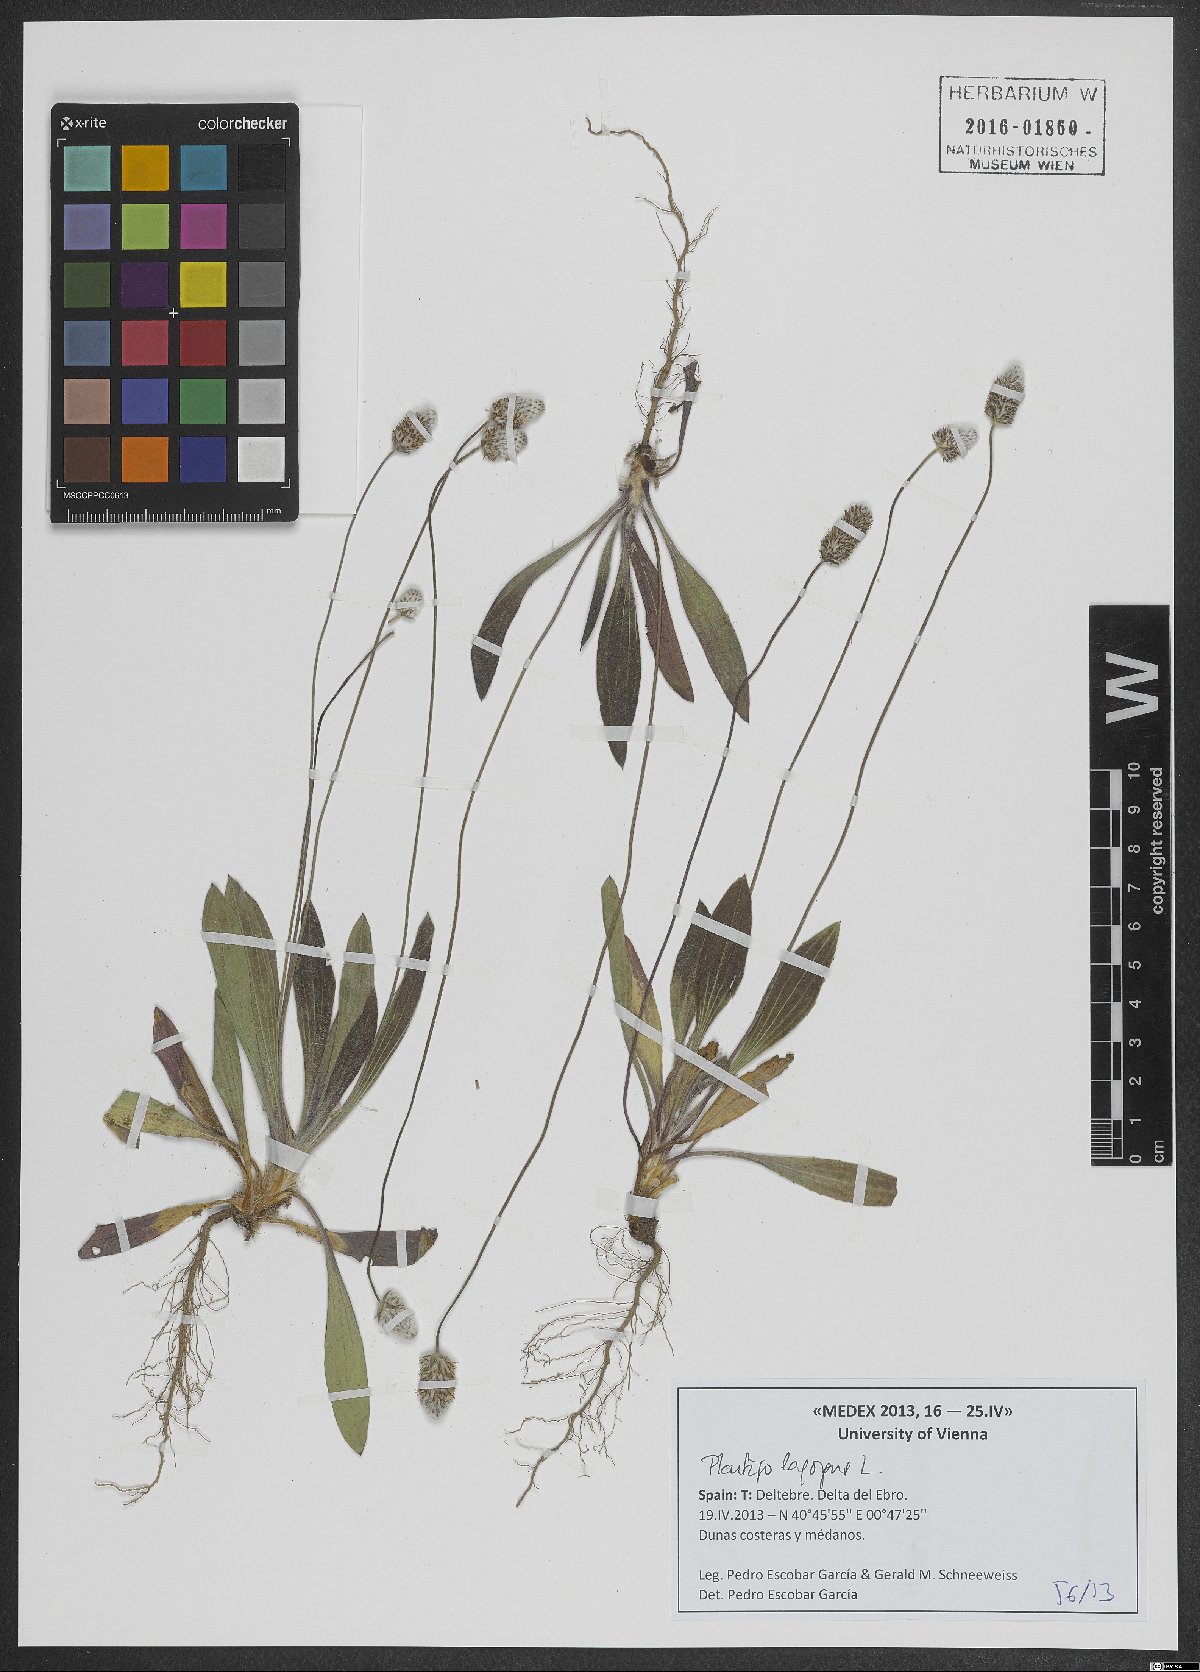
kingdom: Plantae
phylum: Tracheophyta
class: Magnoliopsida
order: Lamiales
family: Plantaginaceae
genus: Plantago
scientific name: Plantago lagopus
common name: Hare-foot plantain
